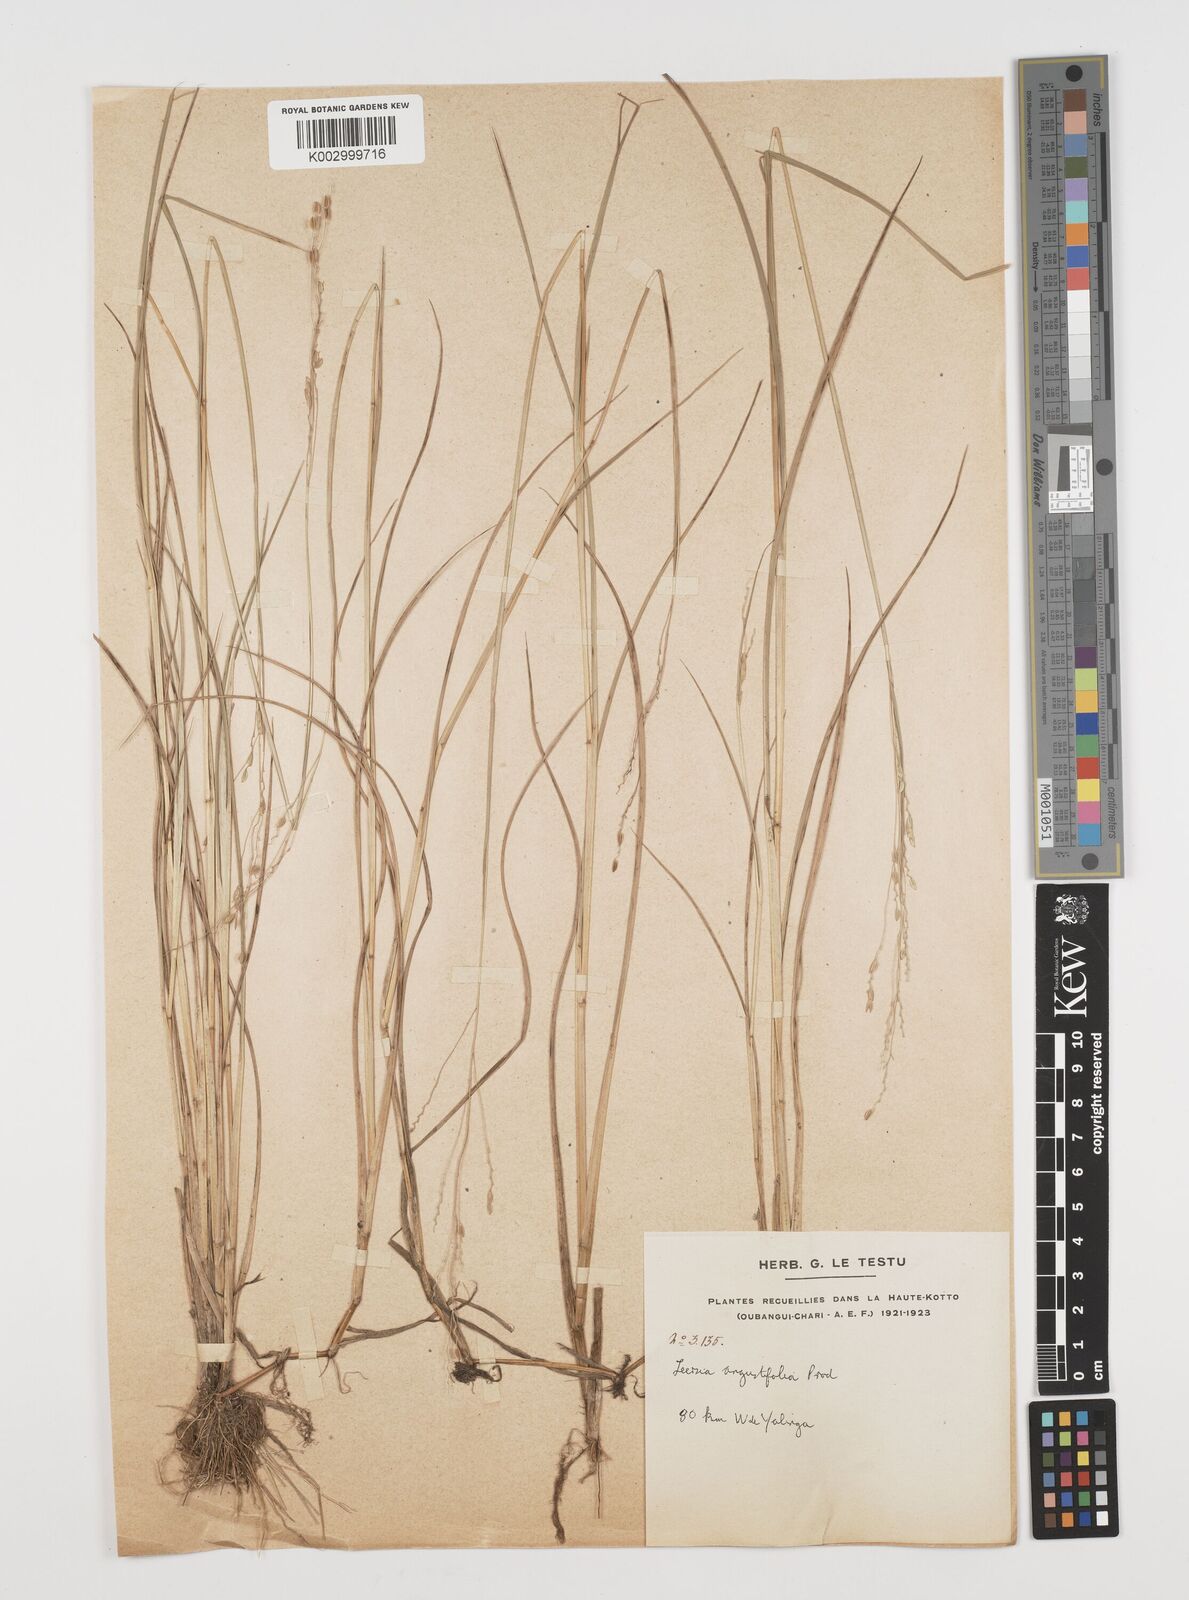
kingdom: Plantae
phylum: Tracheophyta
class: Liliopsida
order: Poales
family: Poaceae
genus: Leersia
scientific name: Leersia angustifolia
